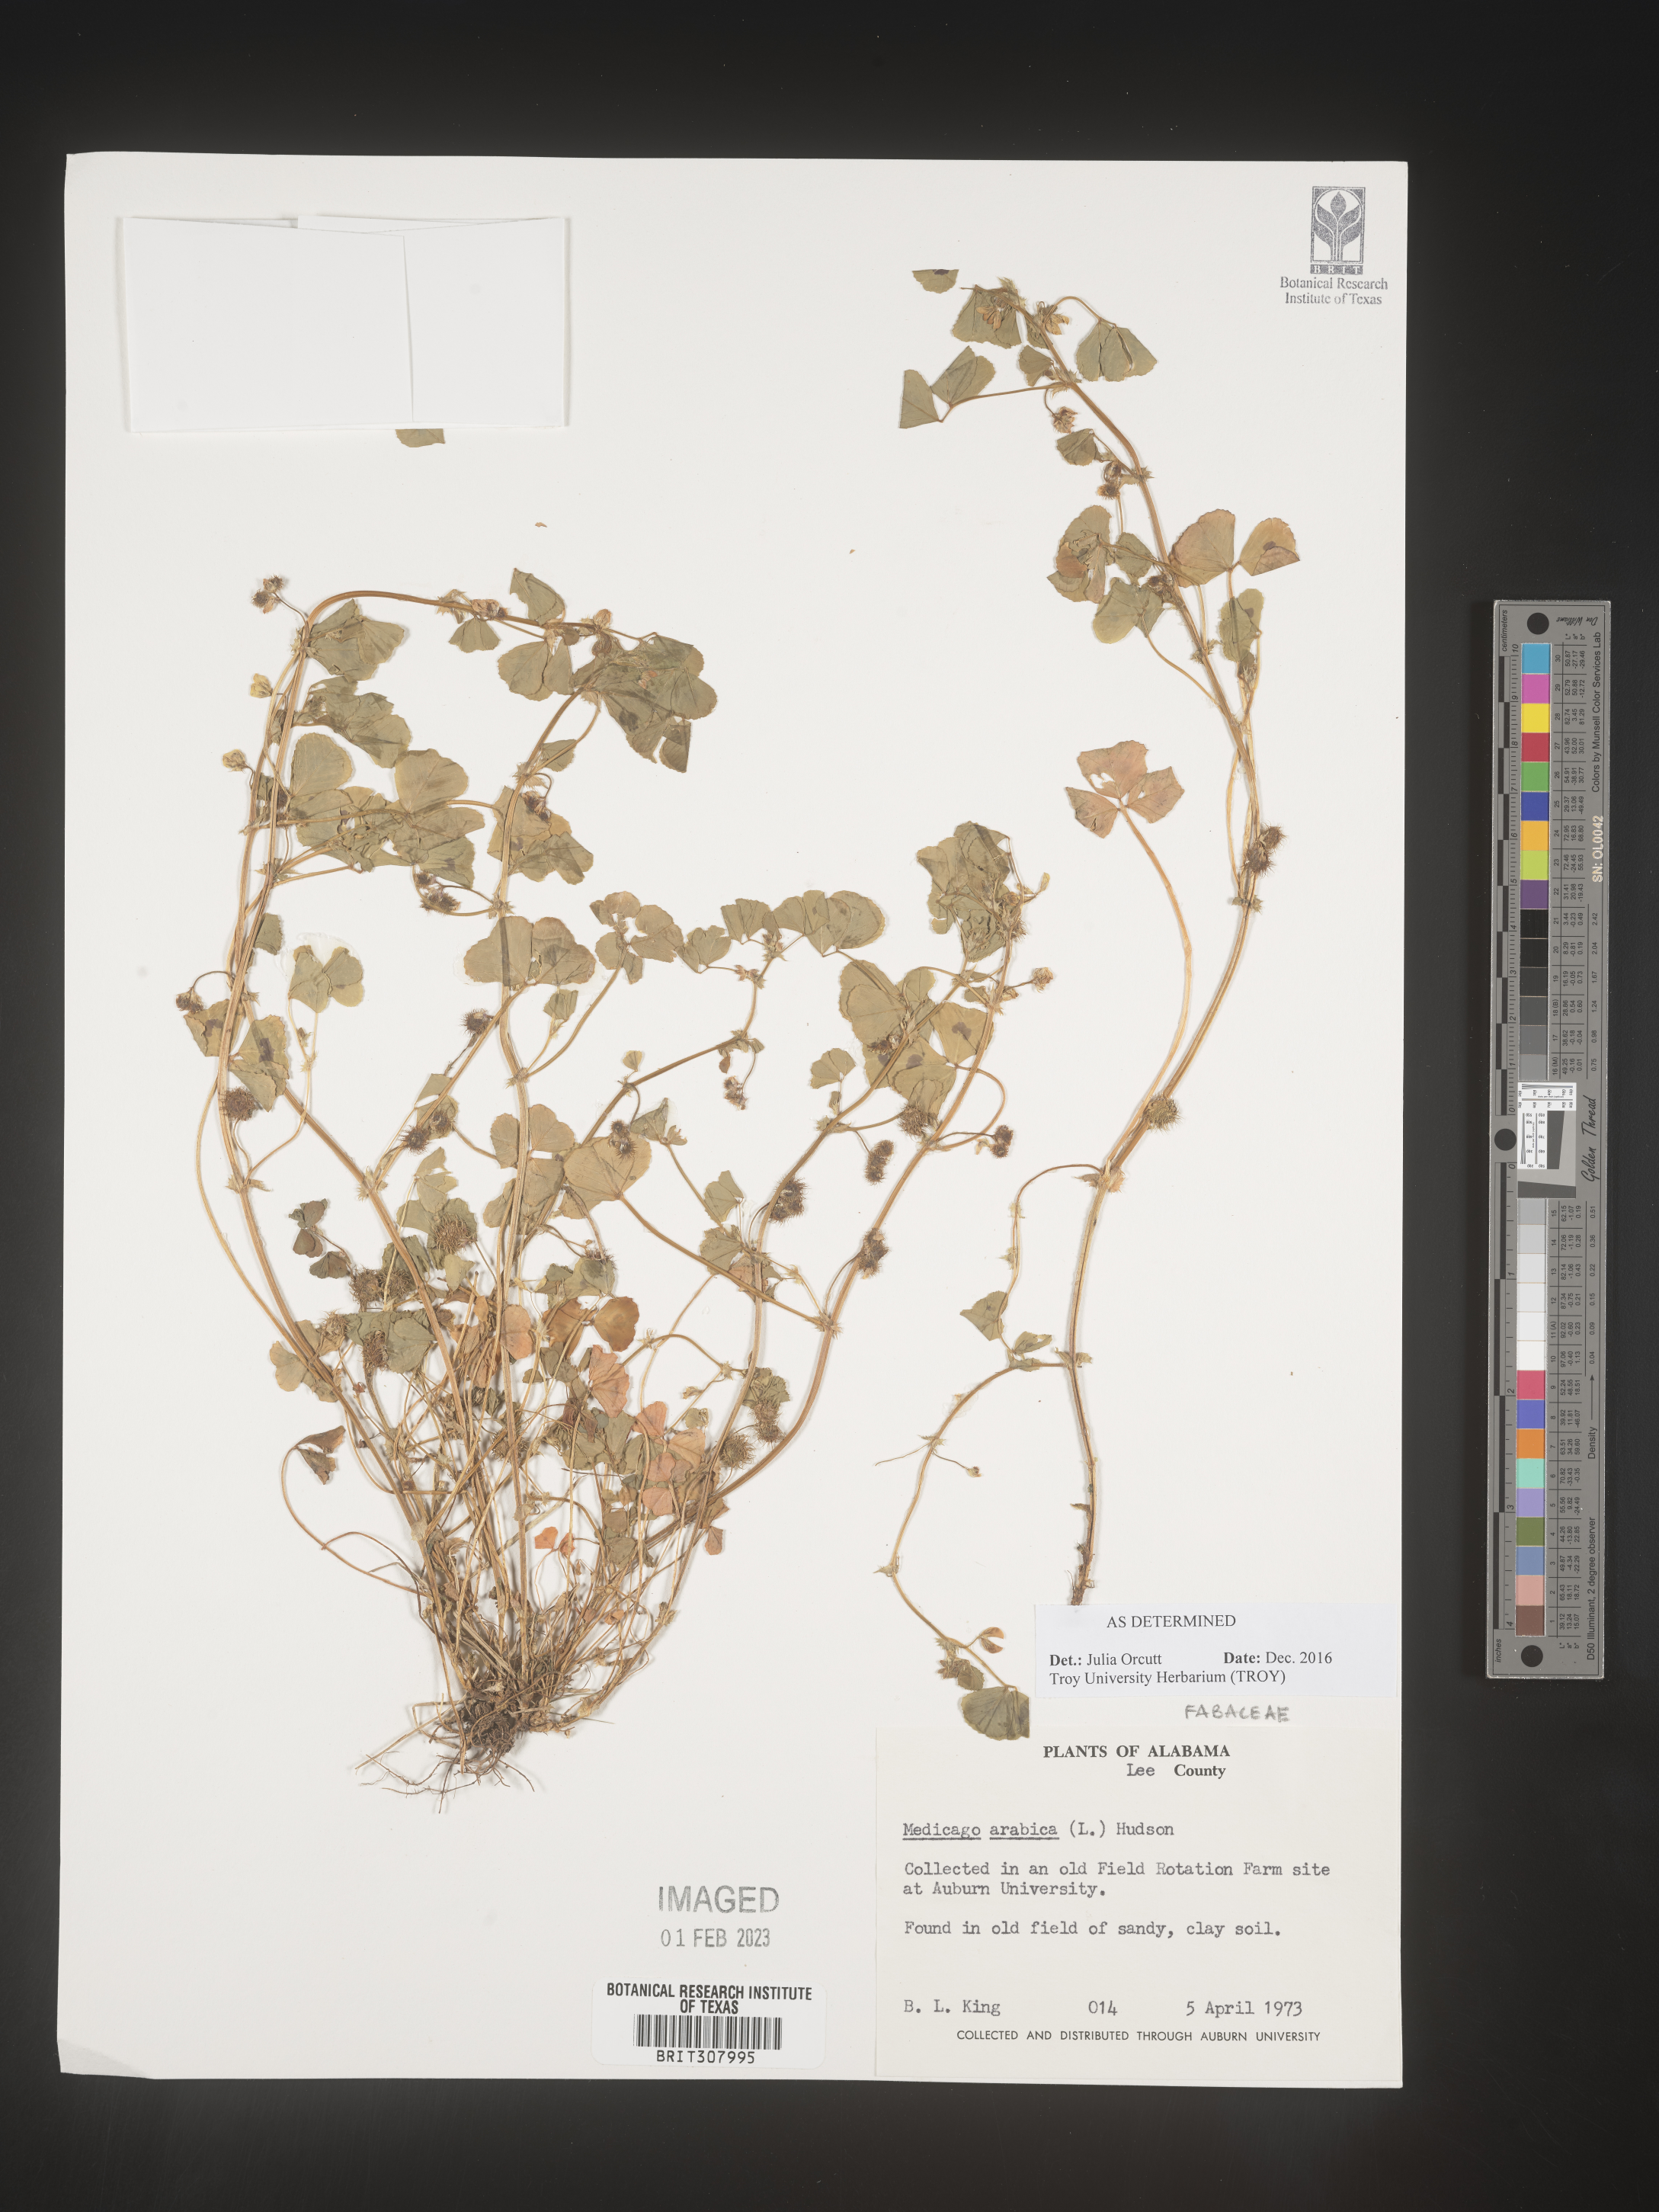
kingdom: Plantae
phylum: Tracheophyta
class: Magnoliopsida
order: Fabales
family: Fabaceae
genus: Medicago
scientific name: Medicago arabica
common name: Spotted medick
